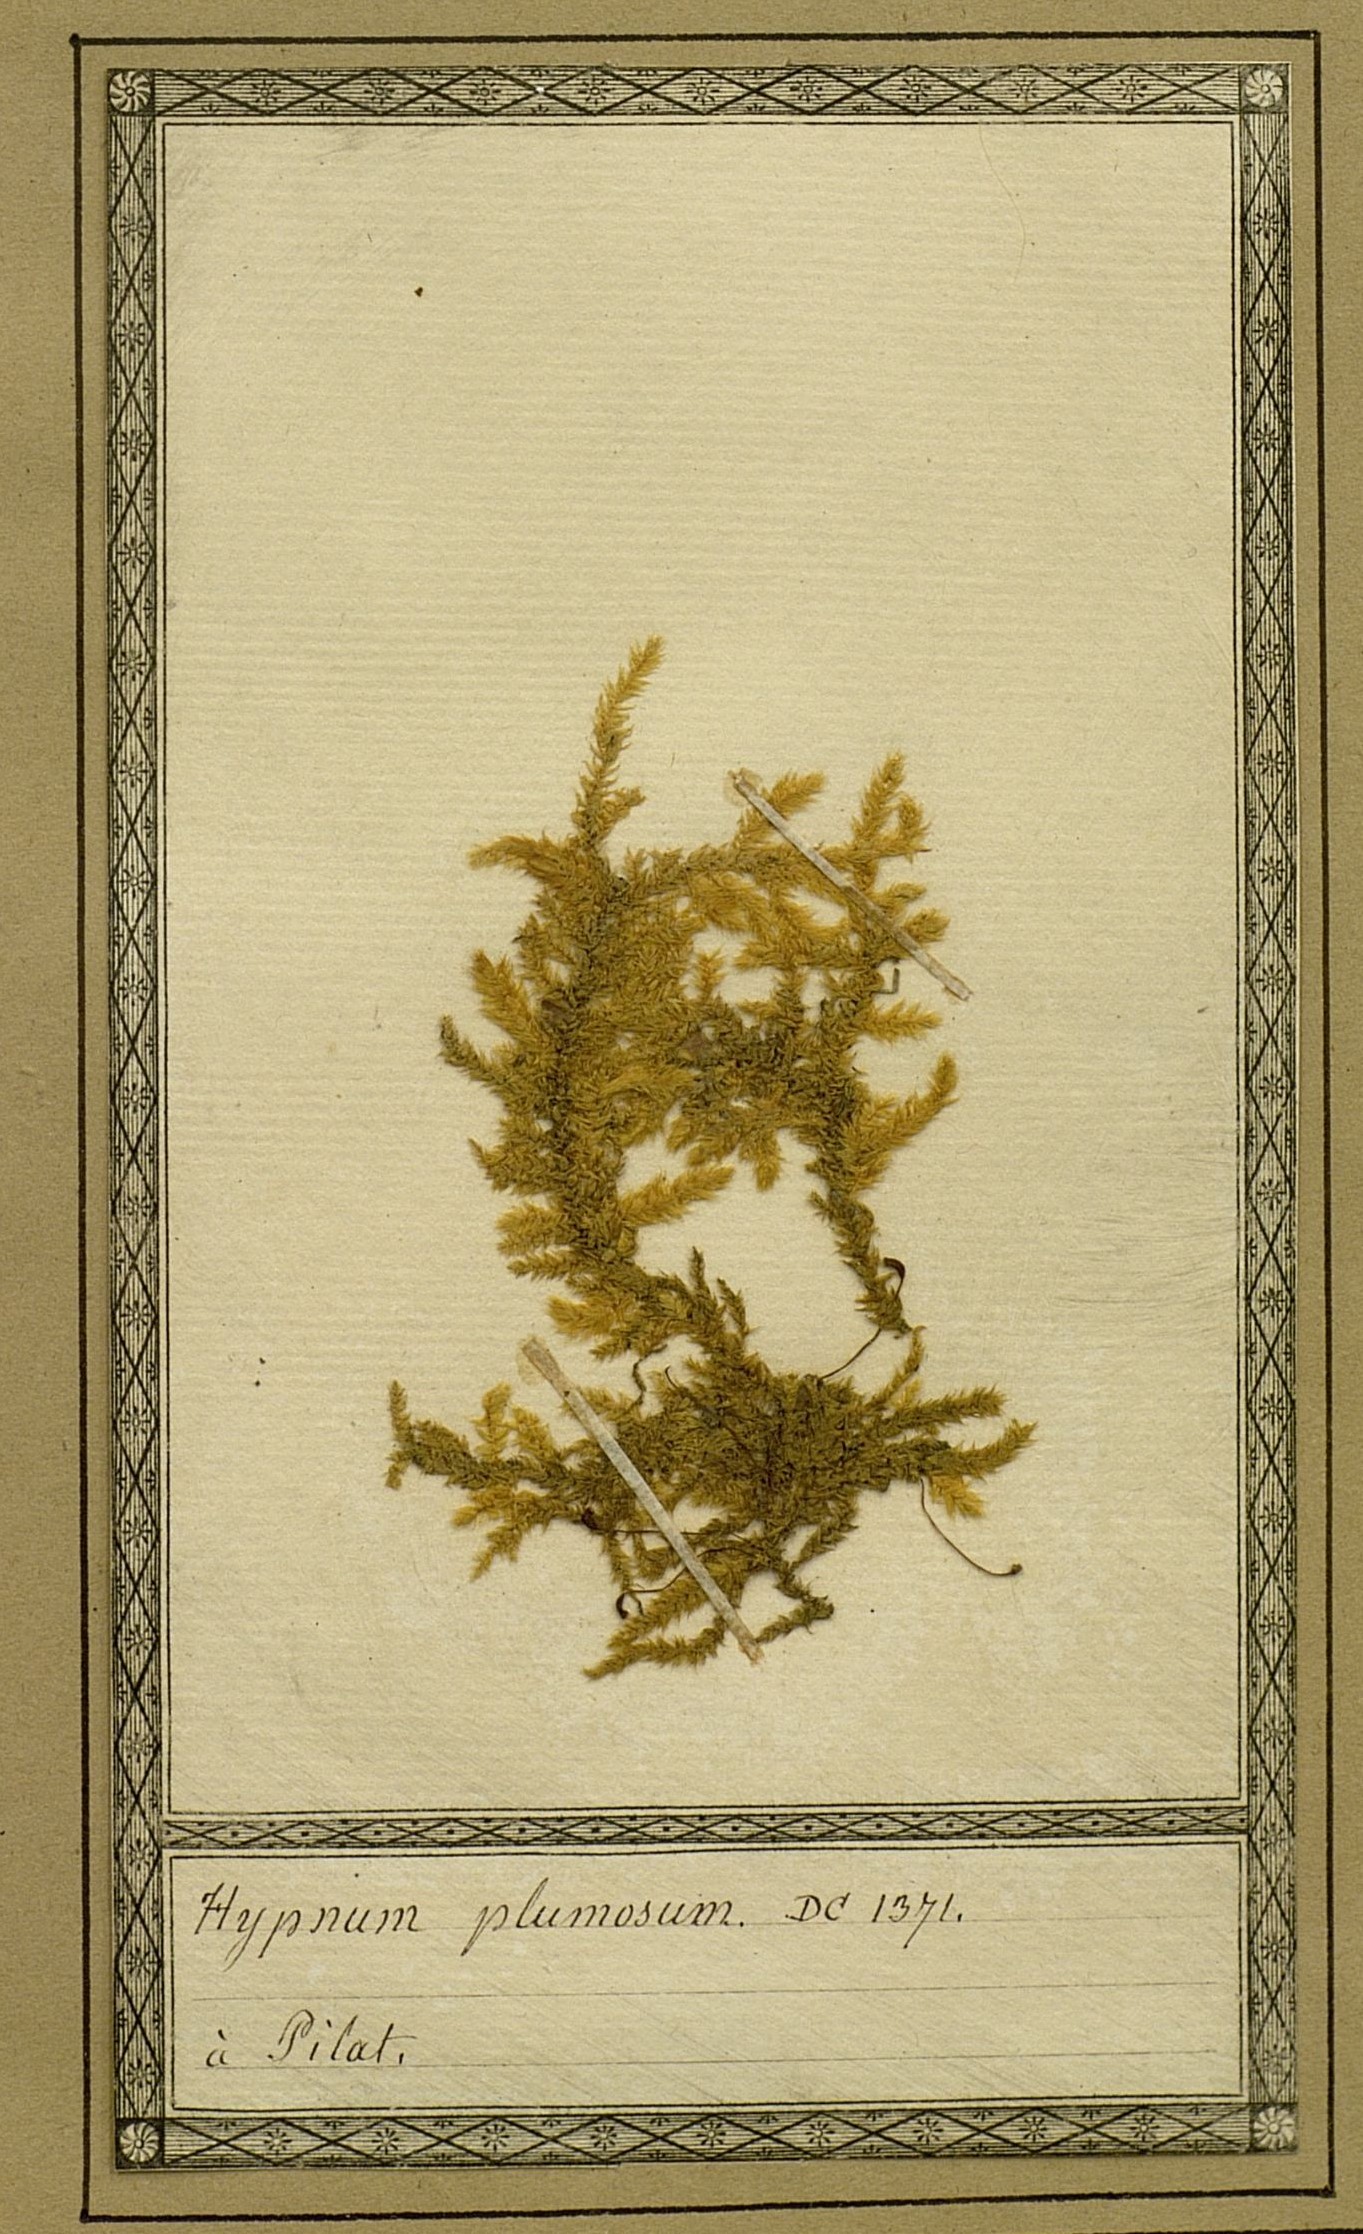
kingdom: Plantae
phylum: Bryophyta
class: Bryopsida
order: Hypnales
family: Hypnaceae
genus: Hypnum
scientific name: Hypnum plumula
